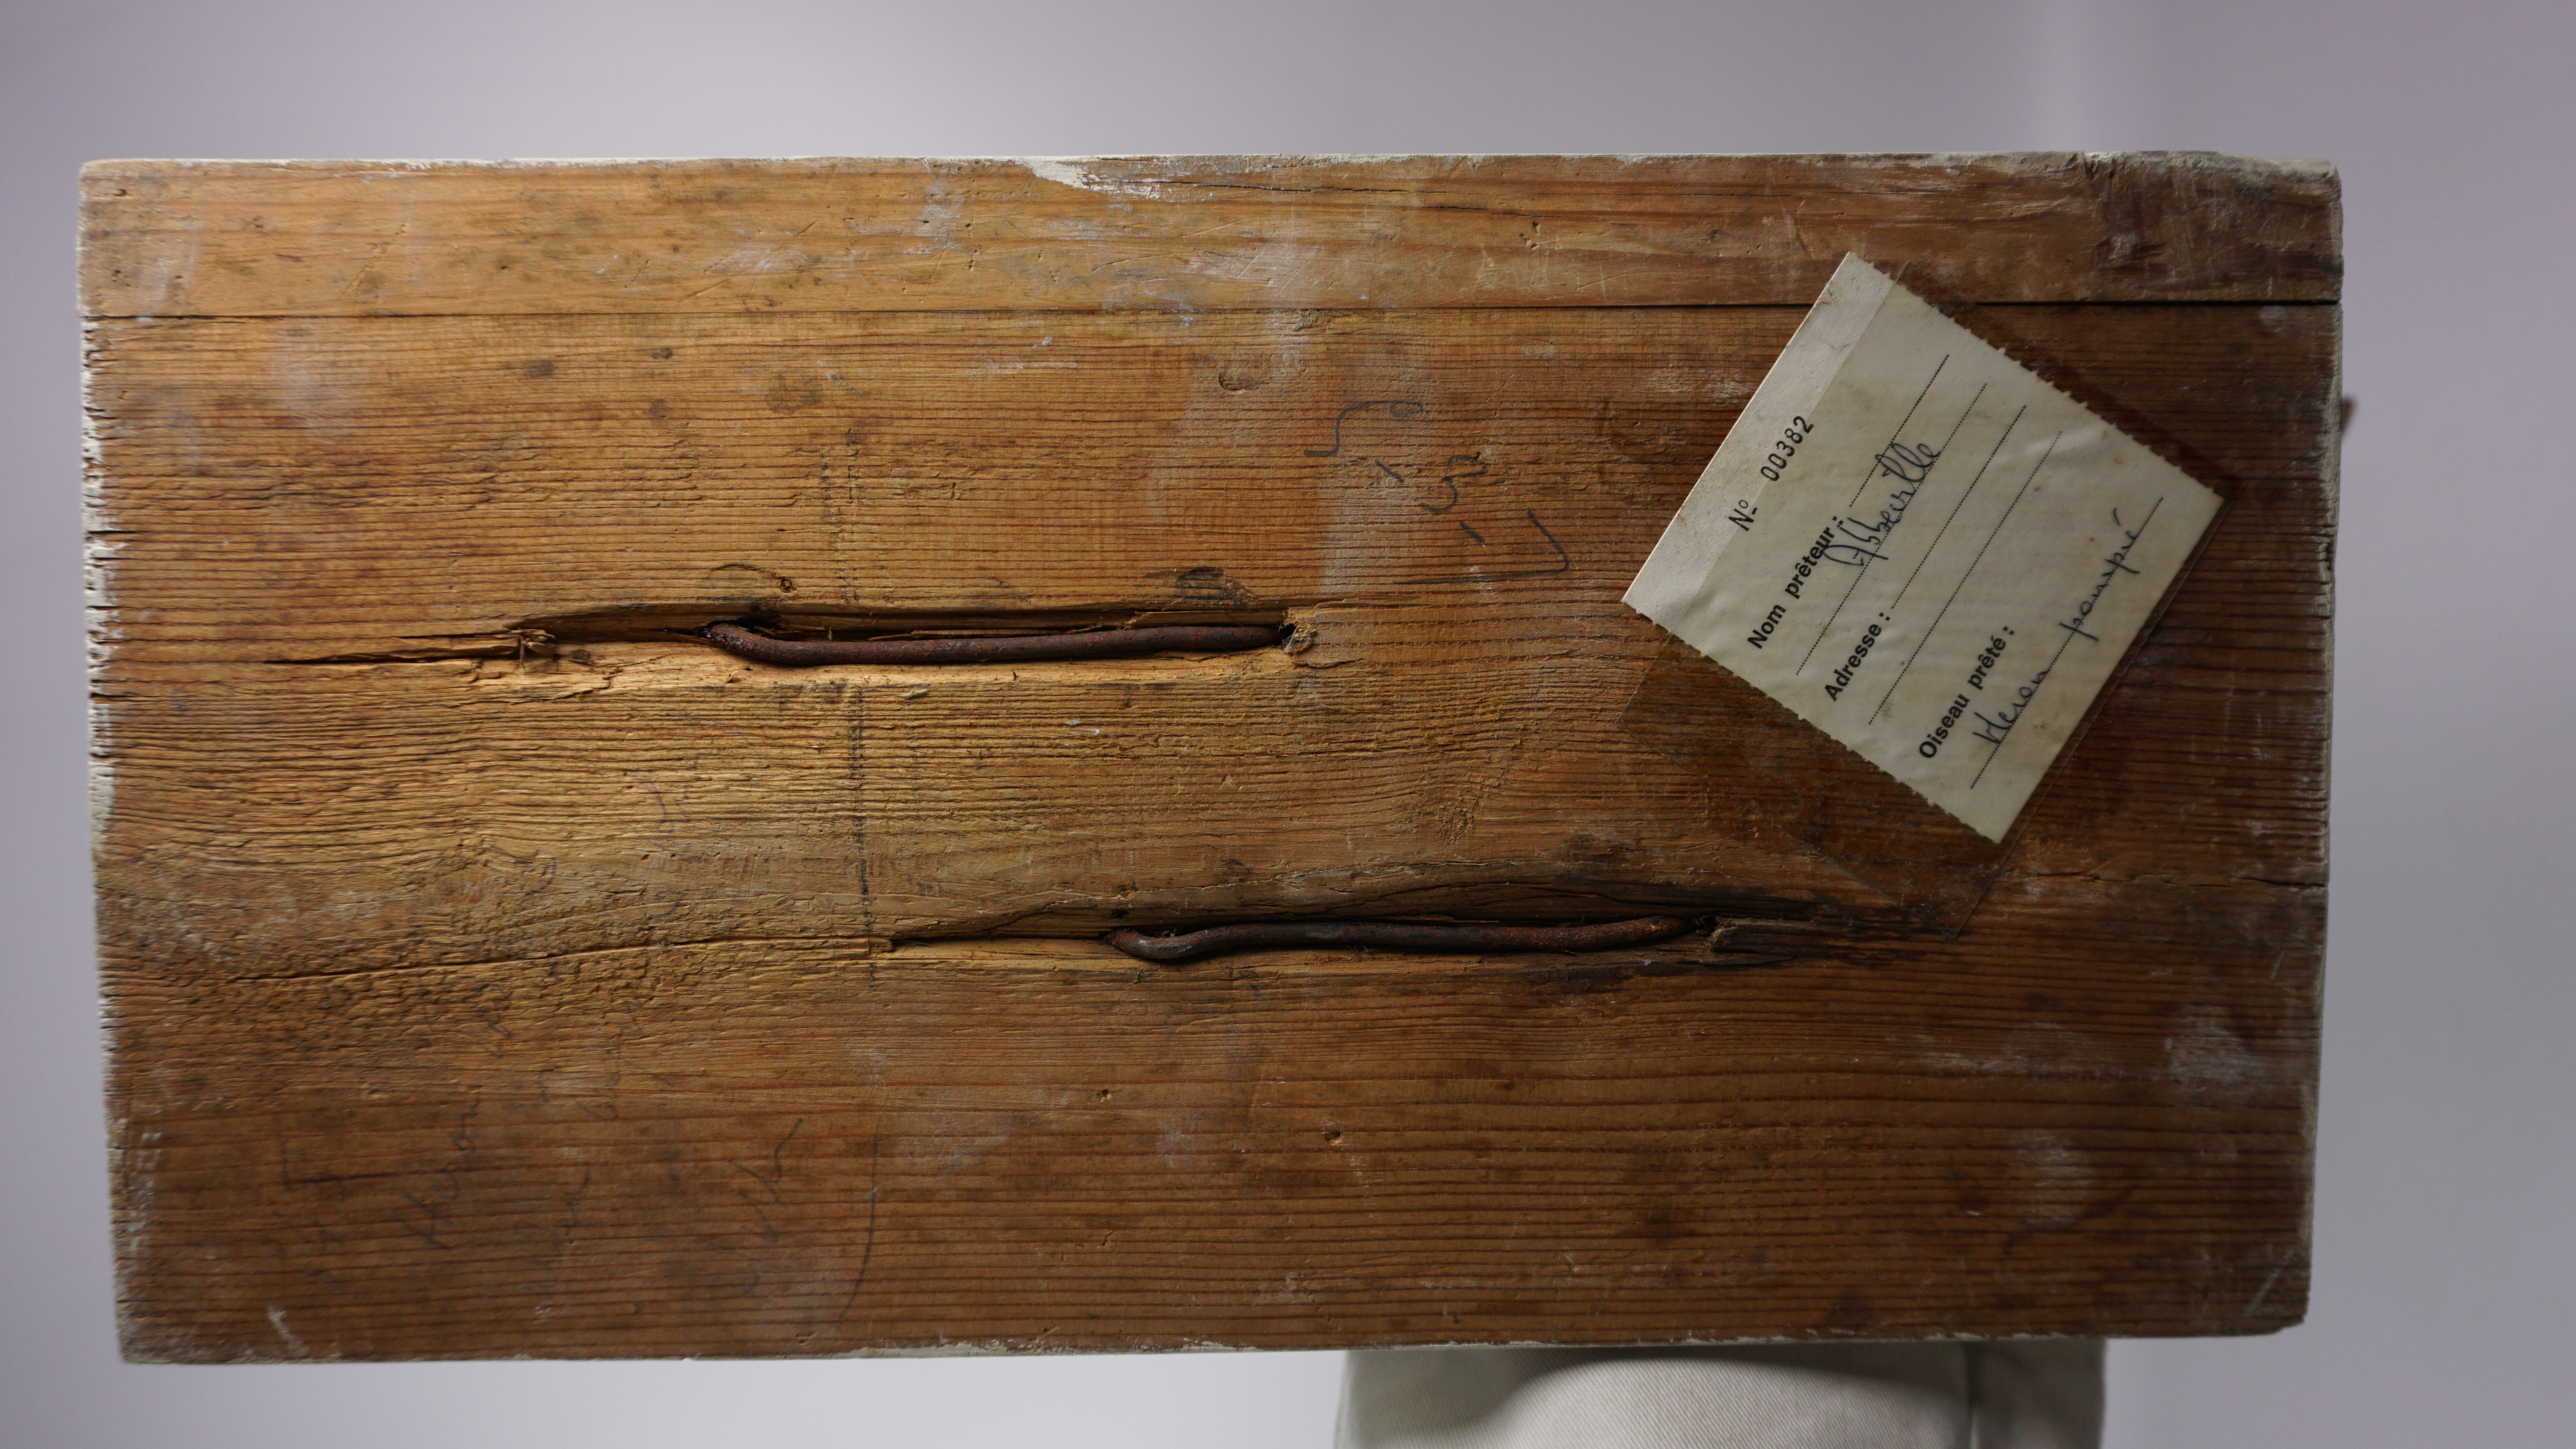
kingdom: Animalia
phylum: Chordata
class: Aves
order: Pelecaniformes
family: Ardeidae
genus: Ardea
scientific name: Ardea purpurea
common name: Purple heron
